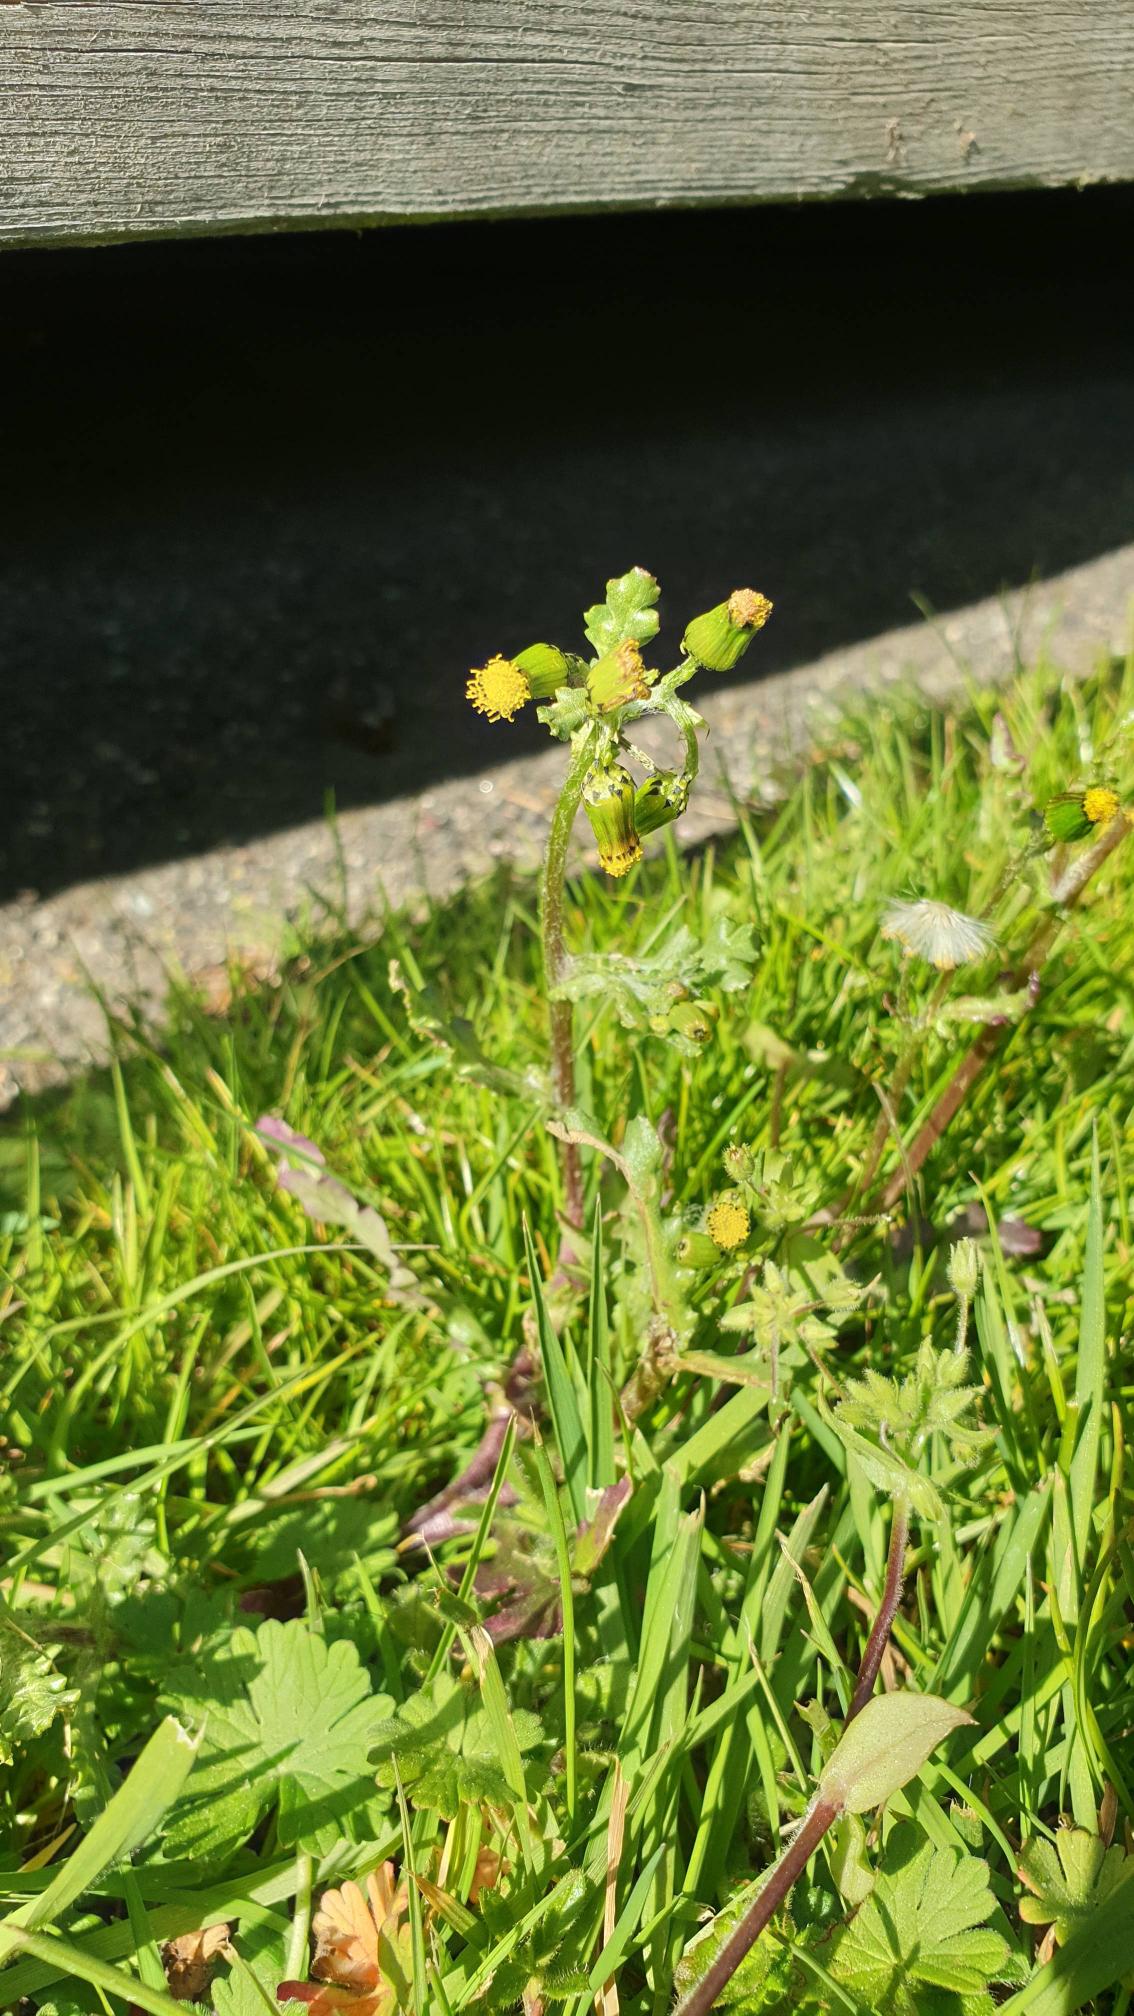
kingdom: Plantae
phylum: Tracheophyta
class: Magnoliopsida
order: Asterales
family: Asteraceae
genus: Senecio
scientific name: Senecio vulgaris
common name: Almindelig brandbæger
